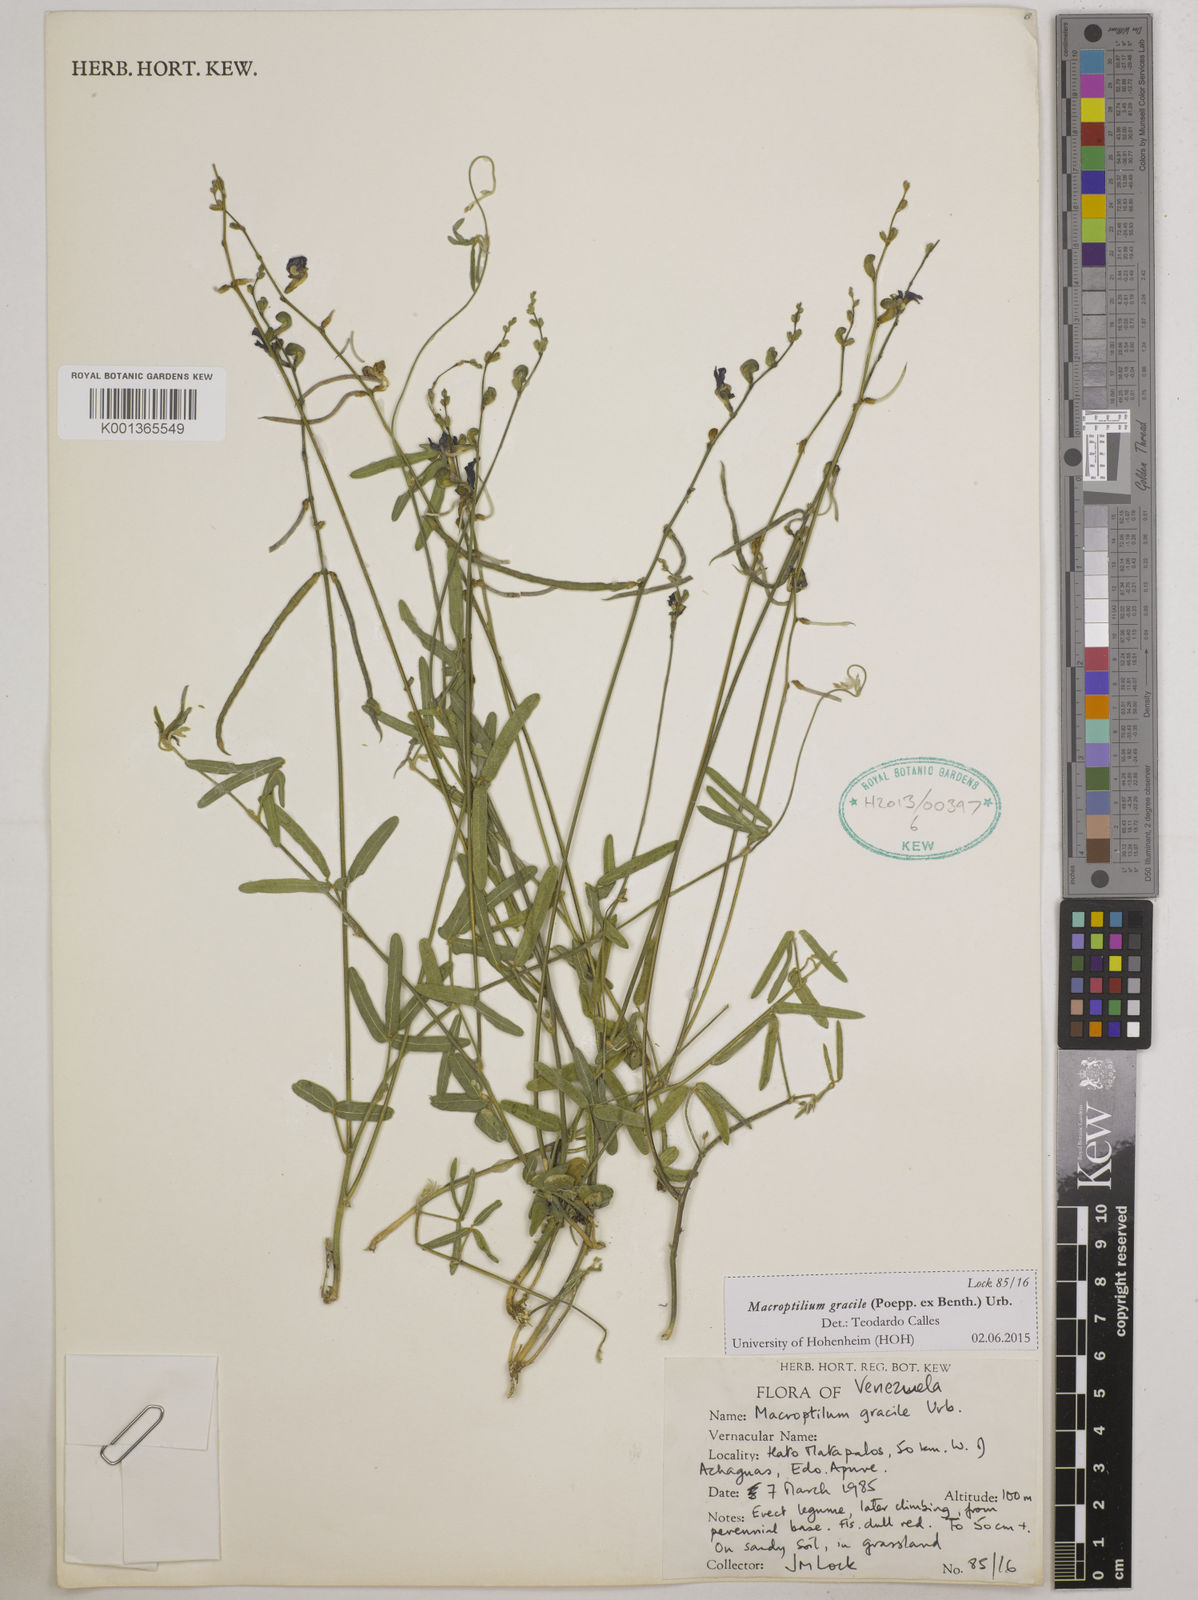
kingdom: Plantae
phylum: Tracheophyta
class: Magnoliopsida
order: Fabales
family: Fabaceae
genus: Macroptilium
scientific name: Macroptilium gracile
